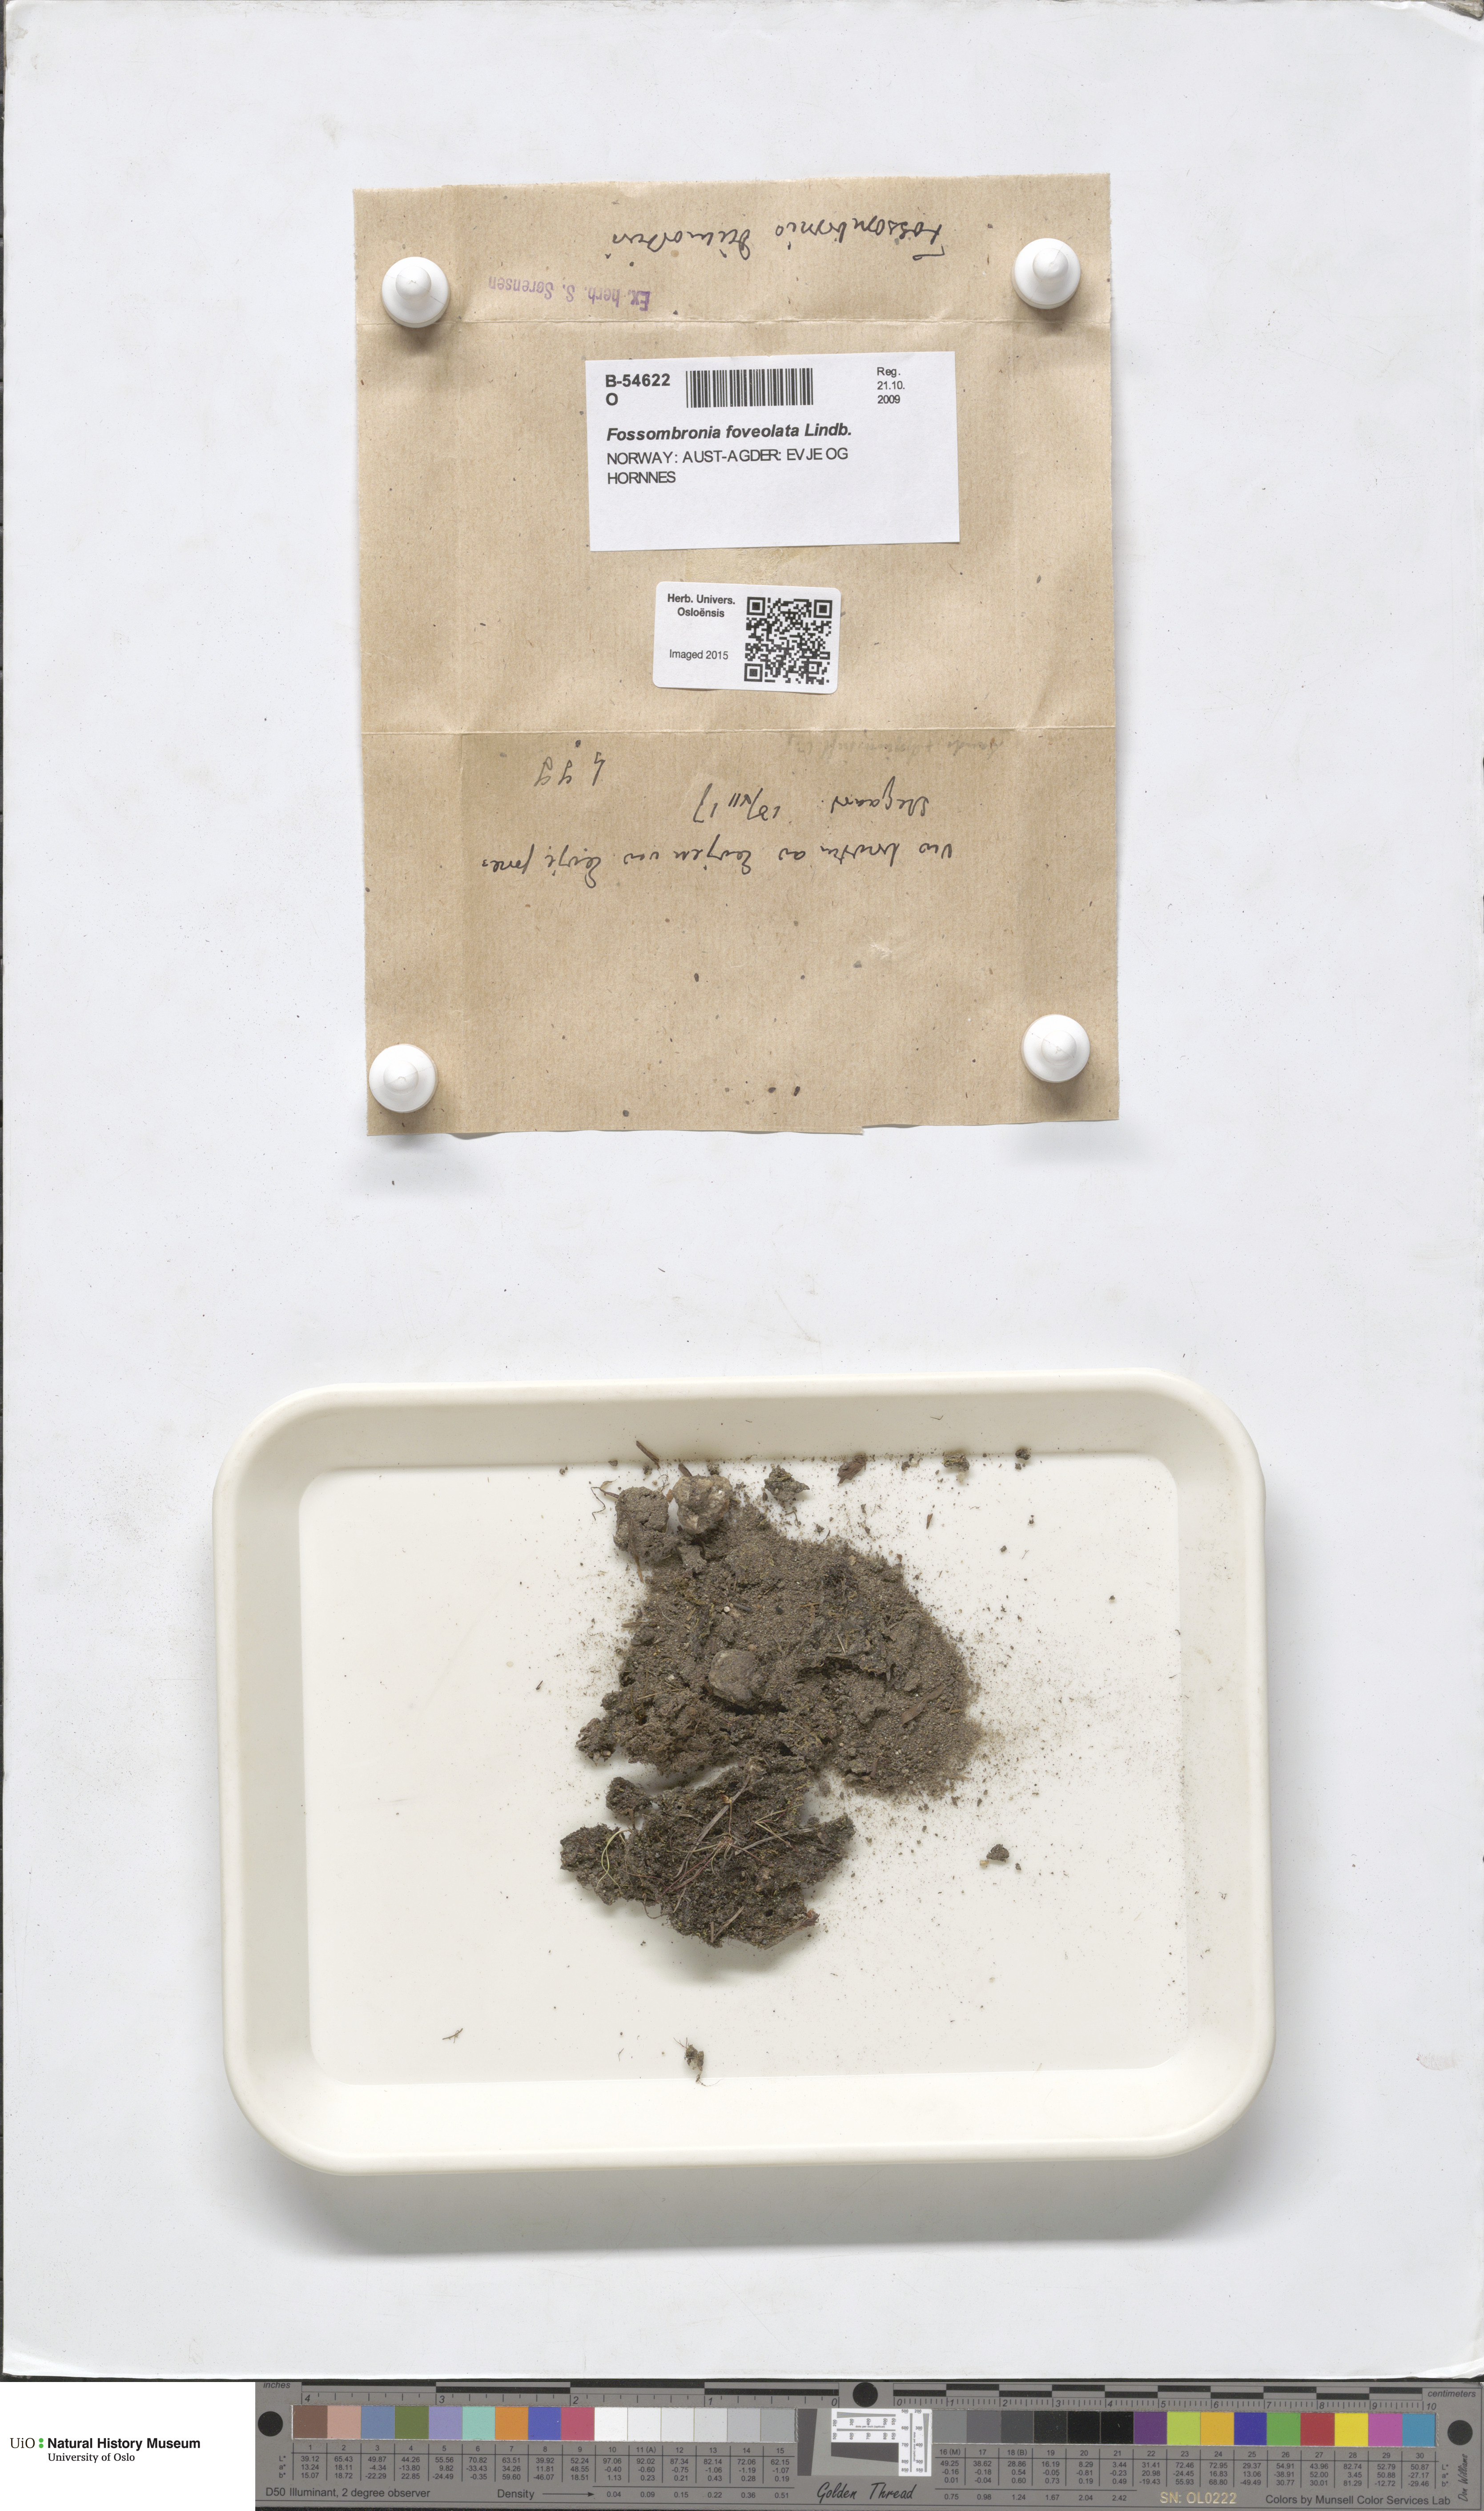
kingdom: Plantae
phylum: Marchantiophyta
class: Jungermanniopsida
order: Fossombroniales
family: Fossombroniaceae
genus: Fossombronia
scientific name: Fossombronia foveolata
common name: Pitted frillwort
